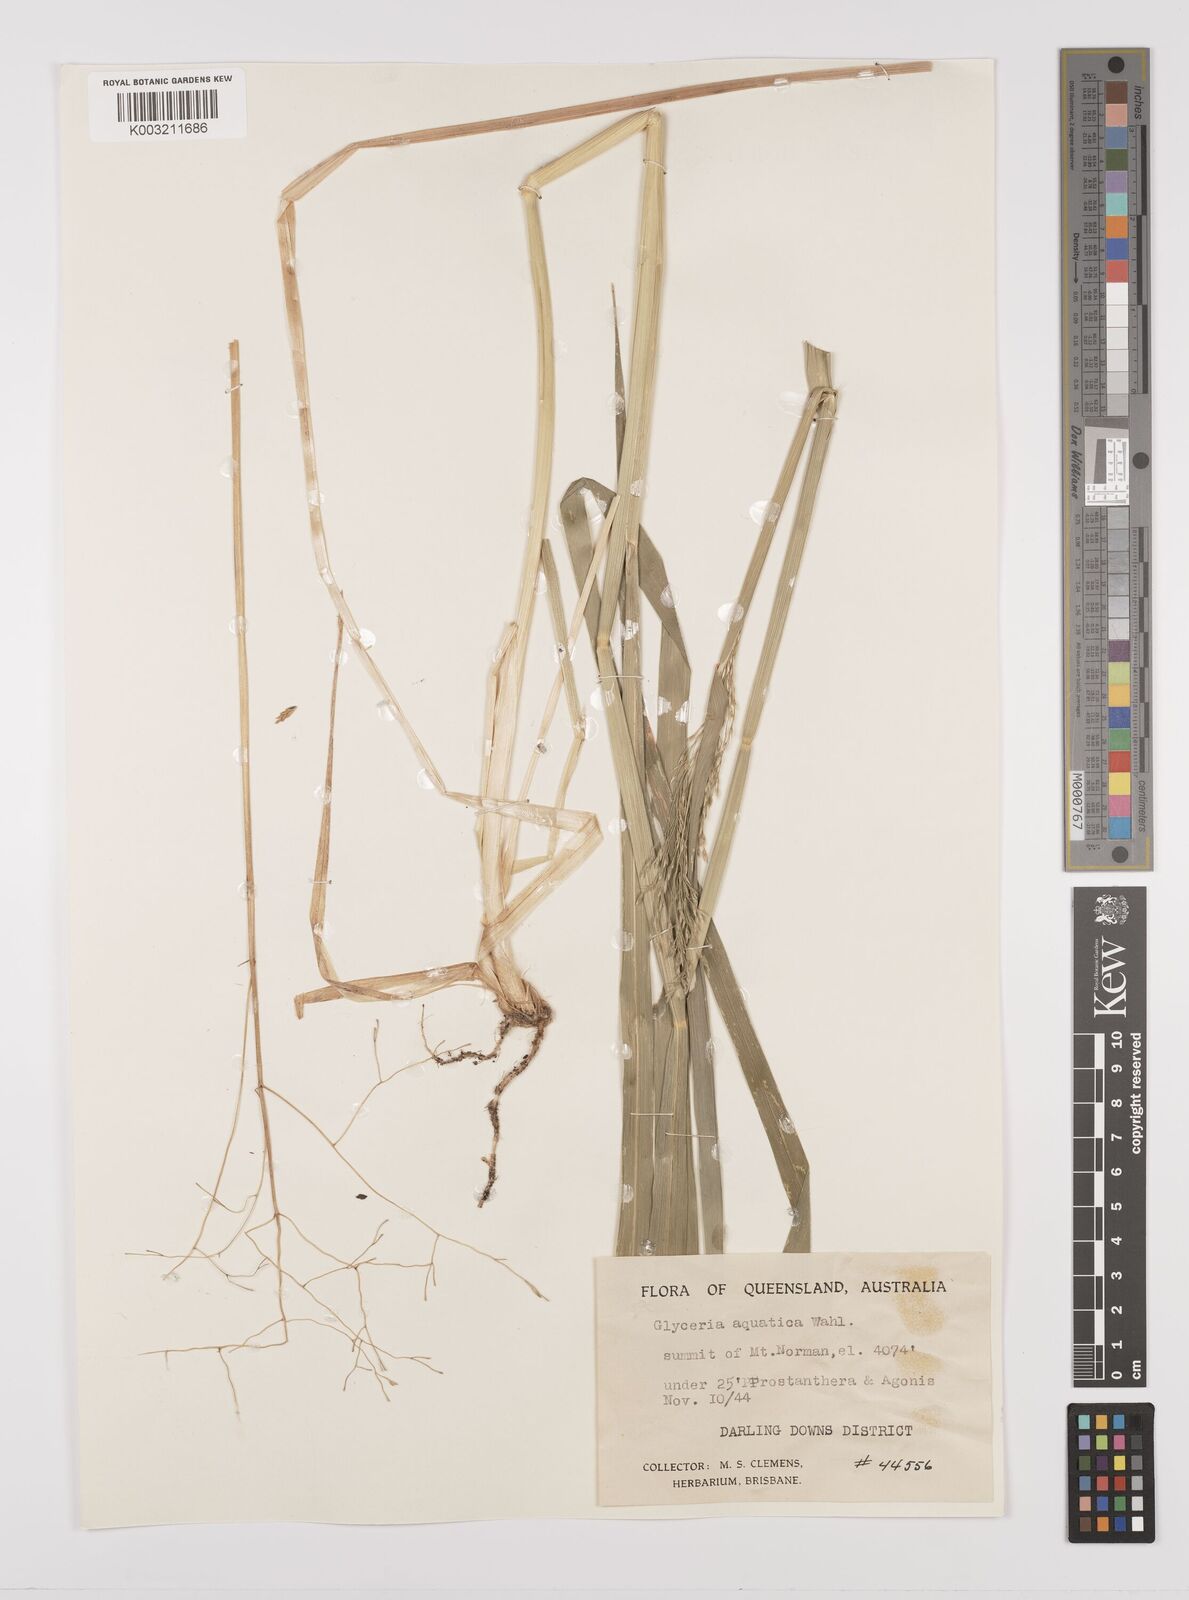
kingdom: Plantae
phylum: Tracheophyta
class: Liliopsida
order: Poales
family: Poaceae
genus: Glyceria
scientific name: Glyceria maxima
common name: Reed mannagrass
